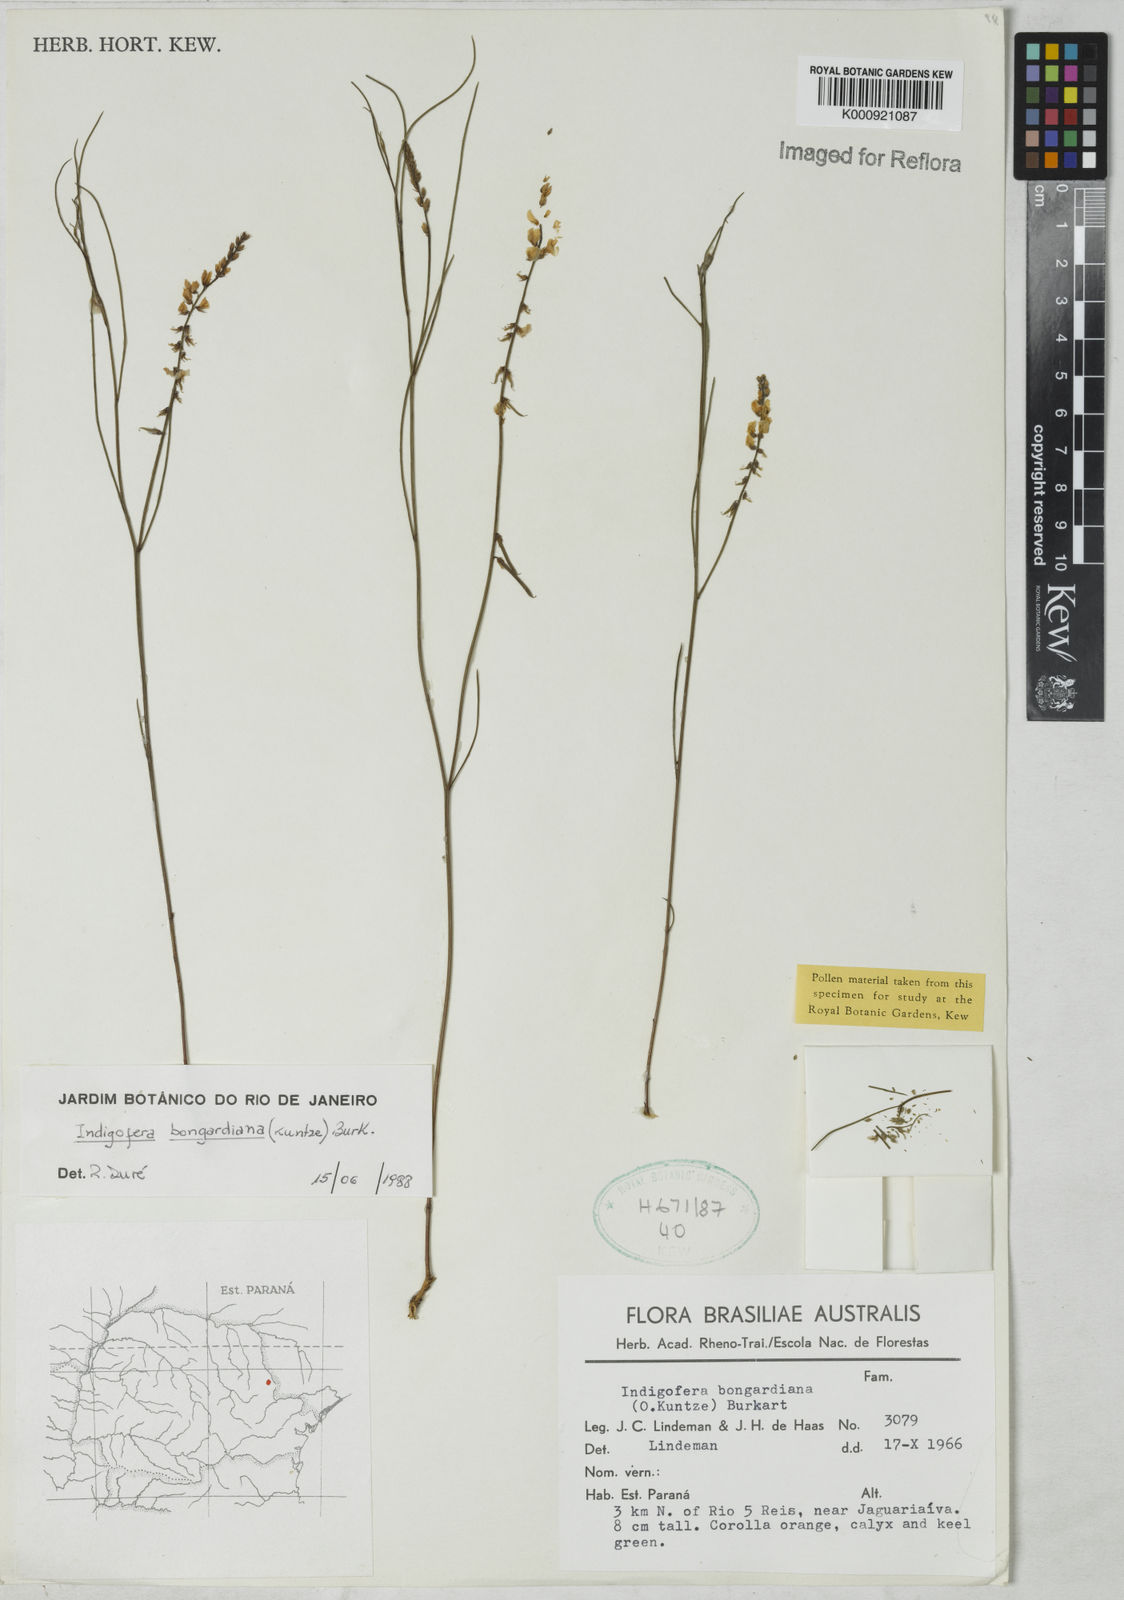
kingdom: Plantae
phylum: Tracheophyta
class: Magnoliopsida
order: Fabales
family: Fabaceae
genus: Indigofera
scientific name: Indigofera bongardiana
